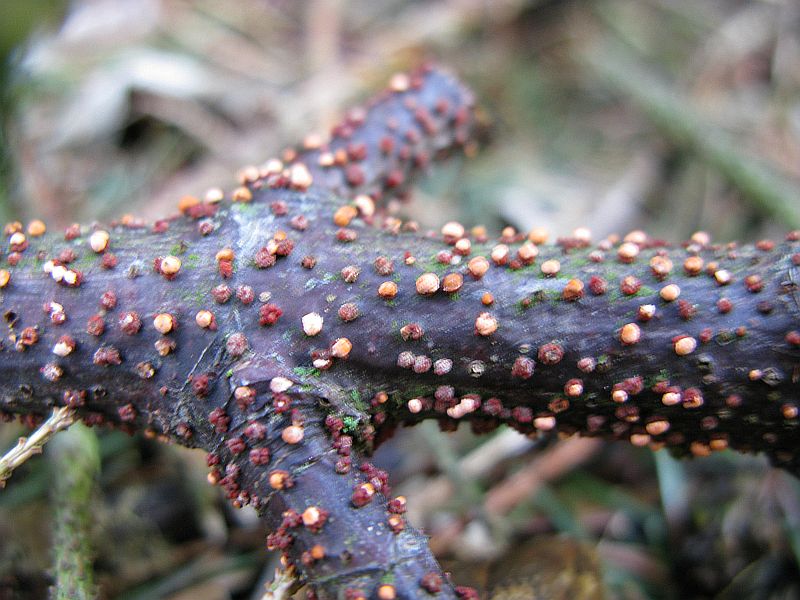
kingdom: Fungi
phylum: Ascomycota
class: Sordariomycetes
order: Hypocreales
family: Nectriaceae
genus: Nectria
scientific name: Nectria cinnabarina
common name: almindelig cinnobersvamp
